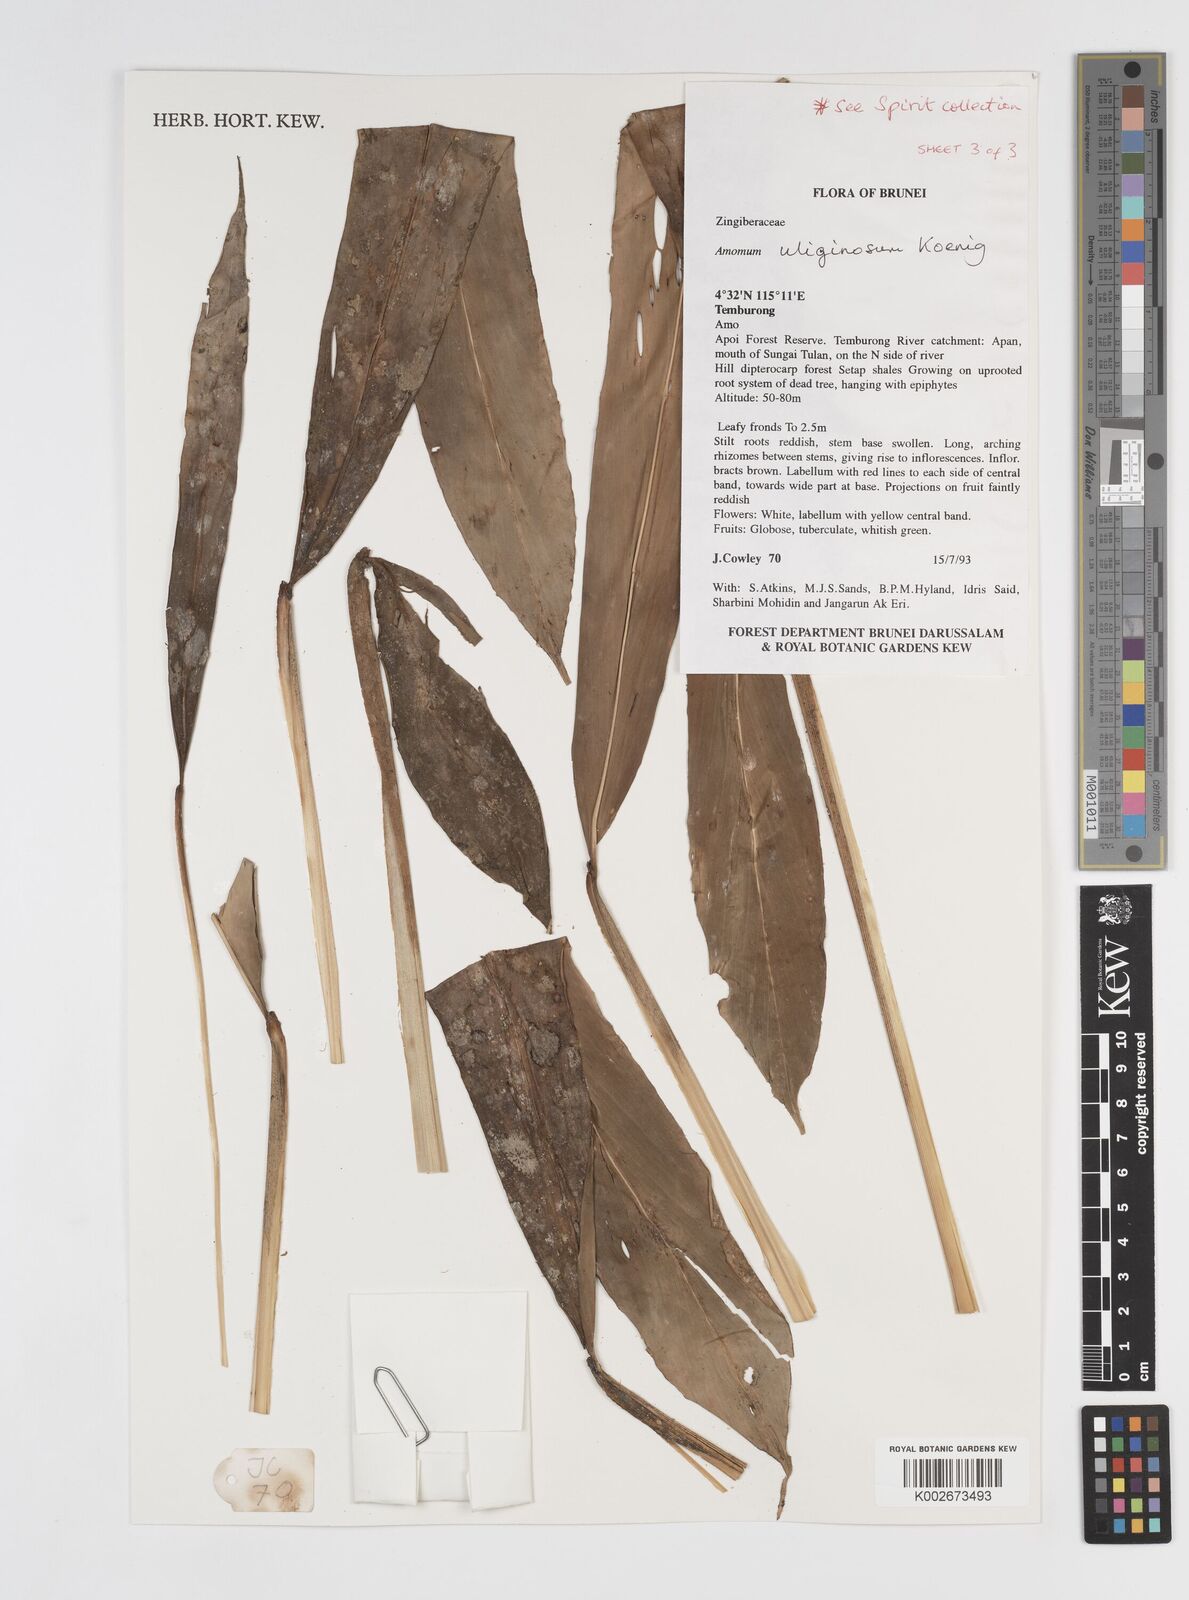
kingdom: Plantae
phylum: Tracheophyta
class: Liliopsida
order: Zingiberales
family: Zingiberaceae
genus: Wurfbainia
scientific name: Wurfbainia uliginosa
